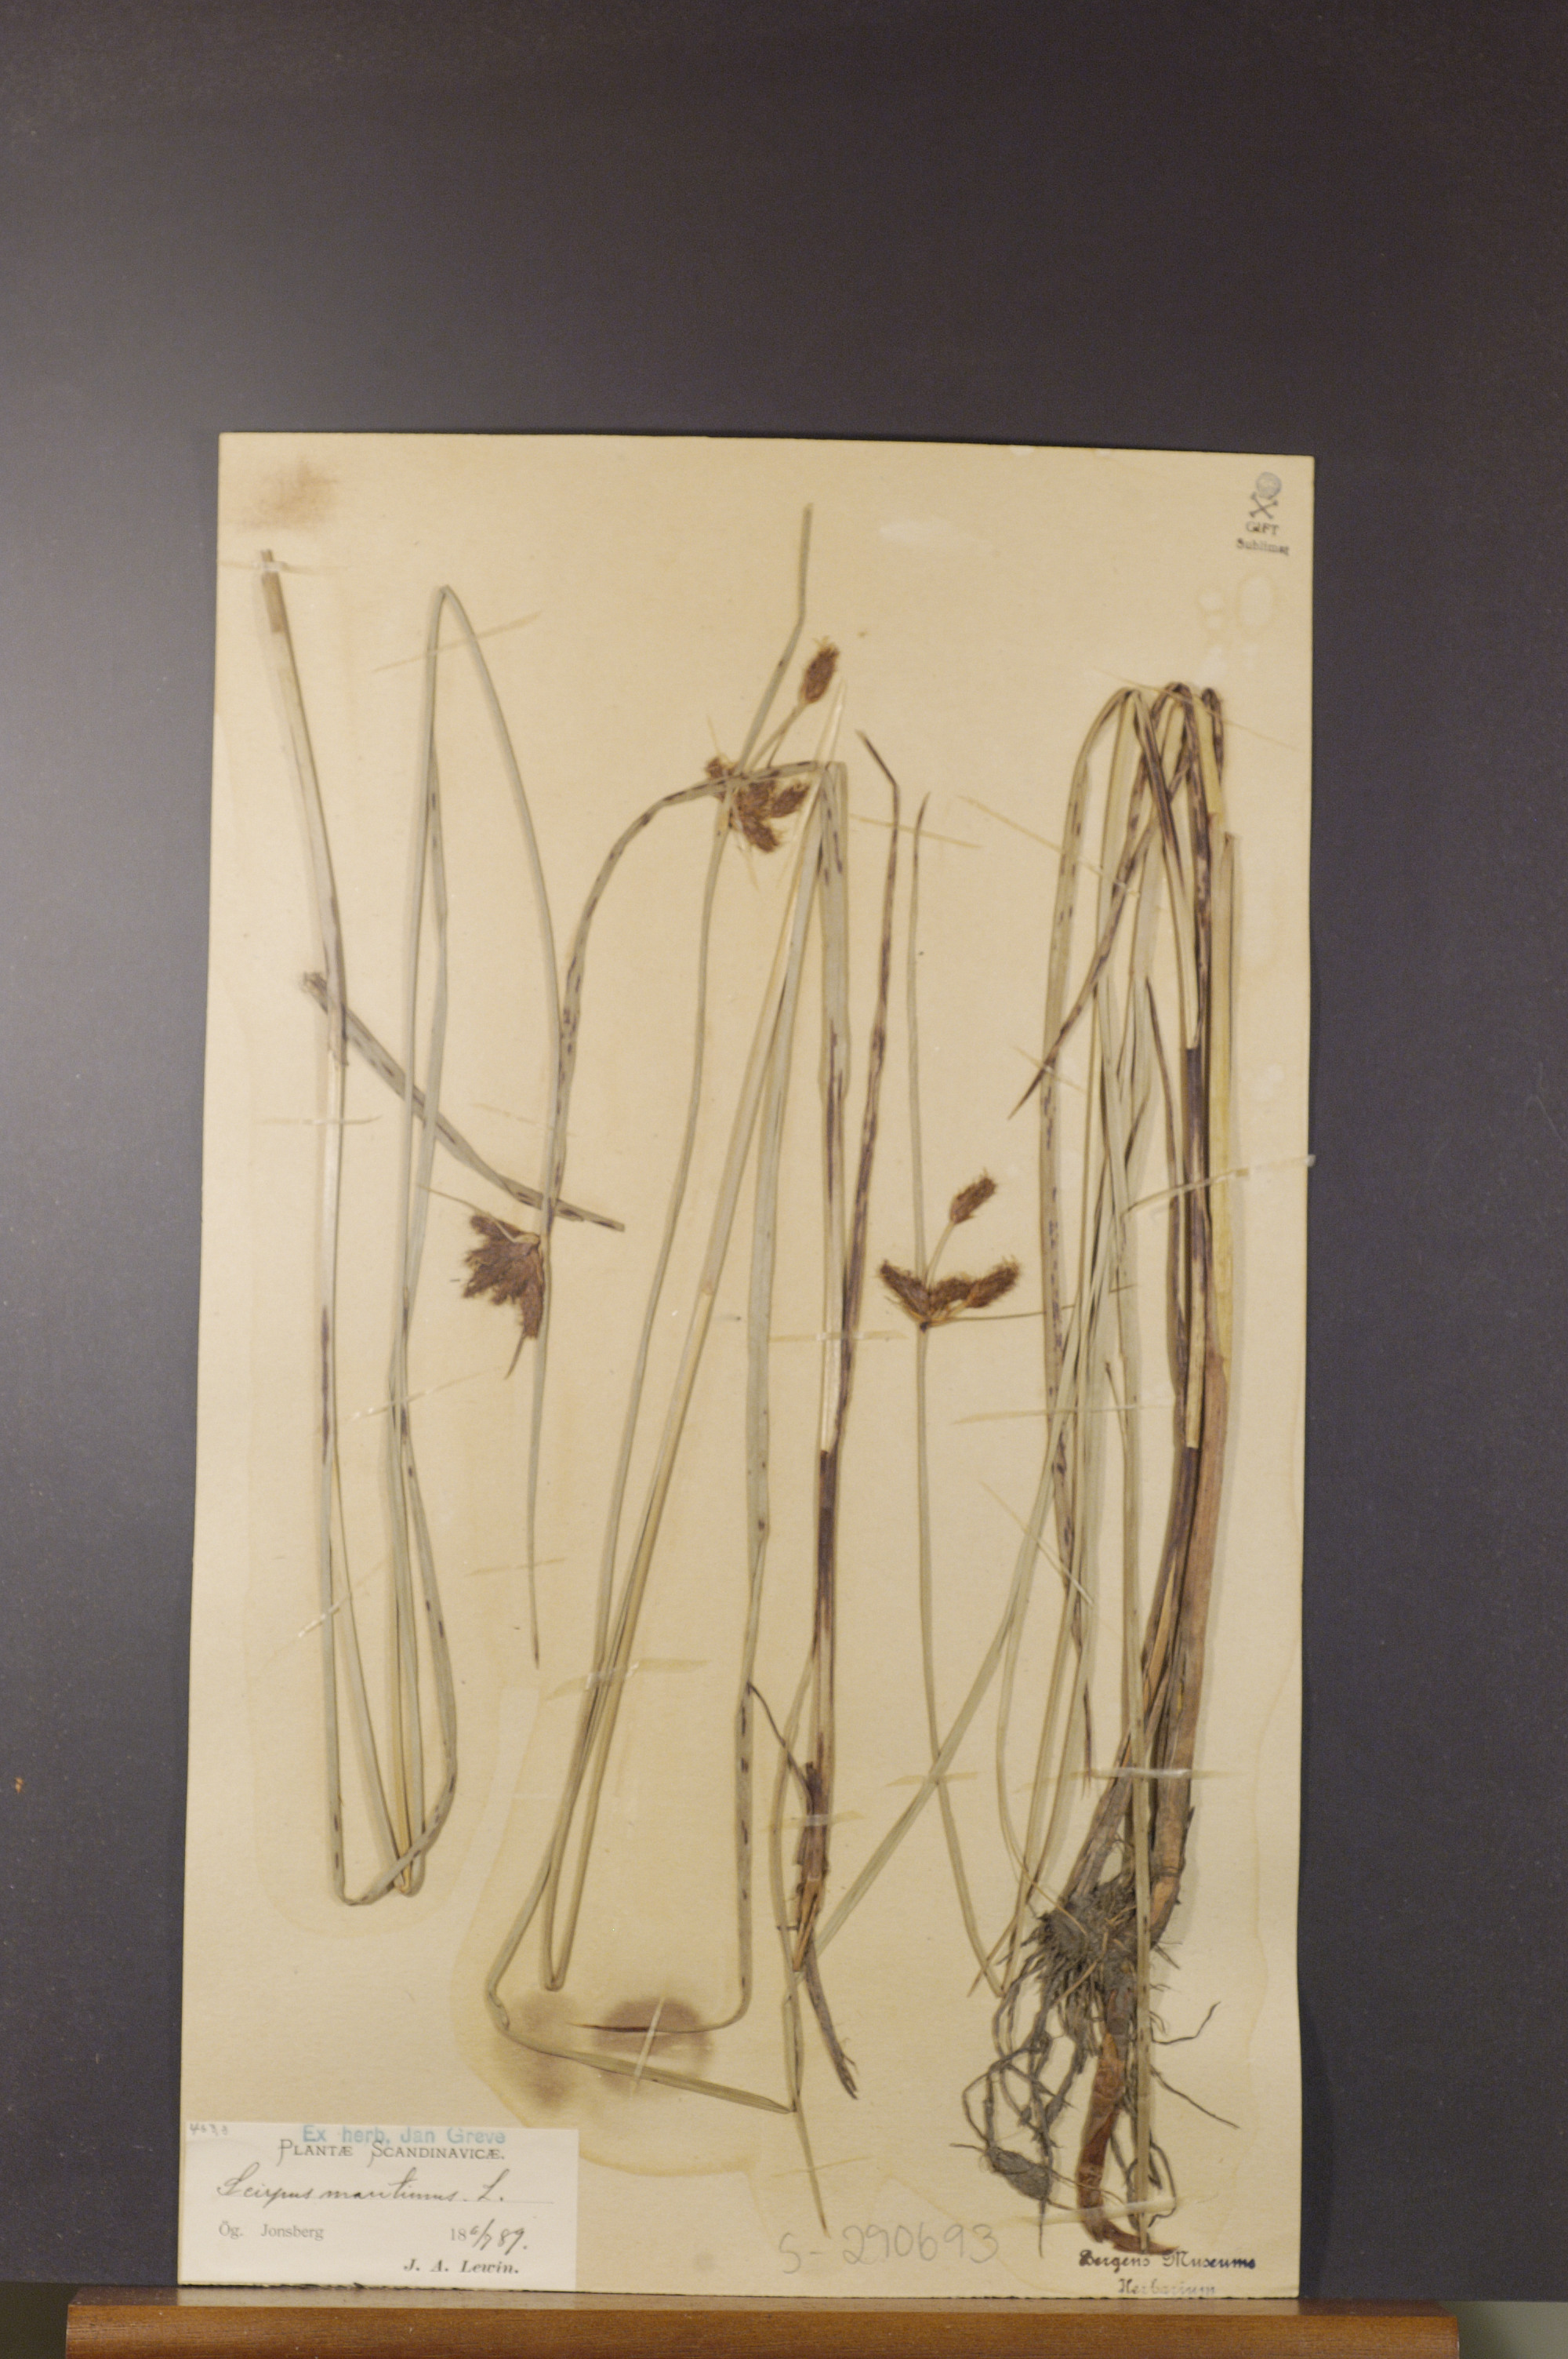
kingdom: Plantae
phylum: Tracheophyta
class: Liliopsida
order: Poales
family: Cyperaceae
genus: Bolboschoenus
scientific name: Bolboschoenus maritimus
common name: Sea club-rush
